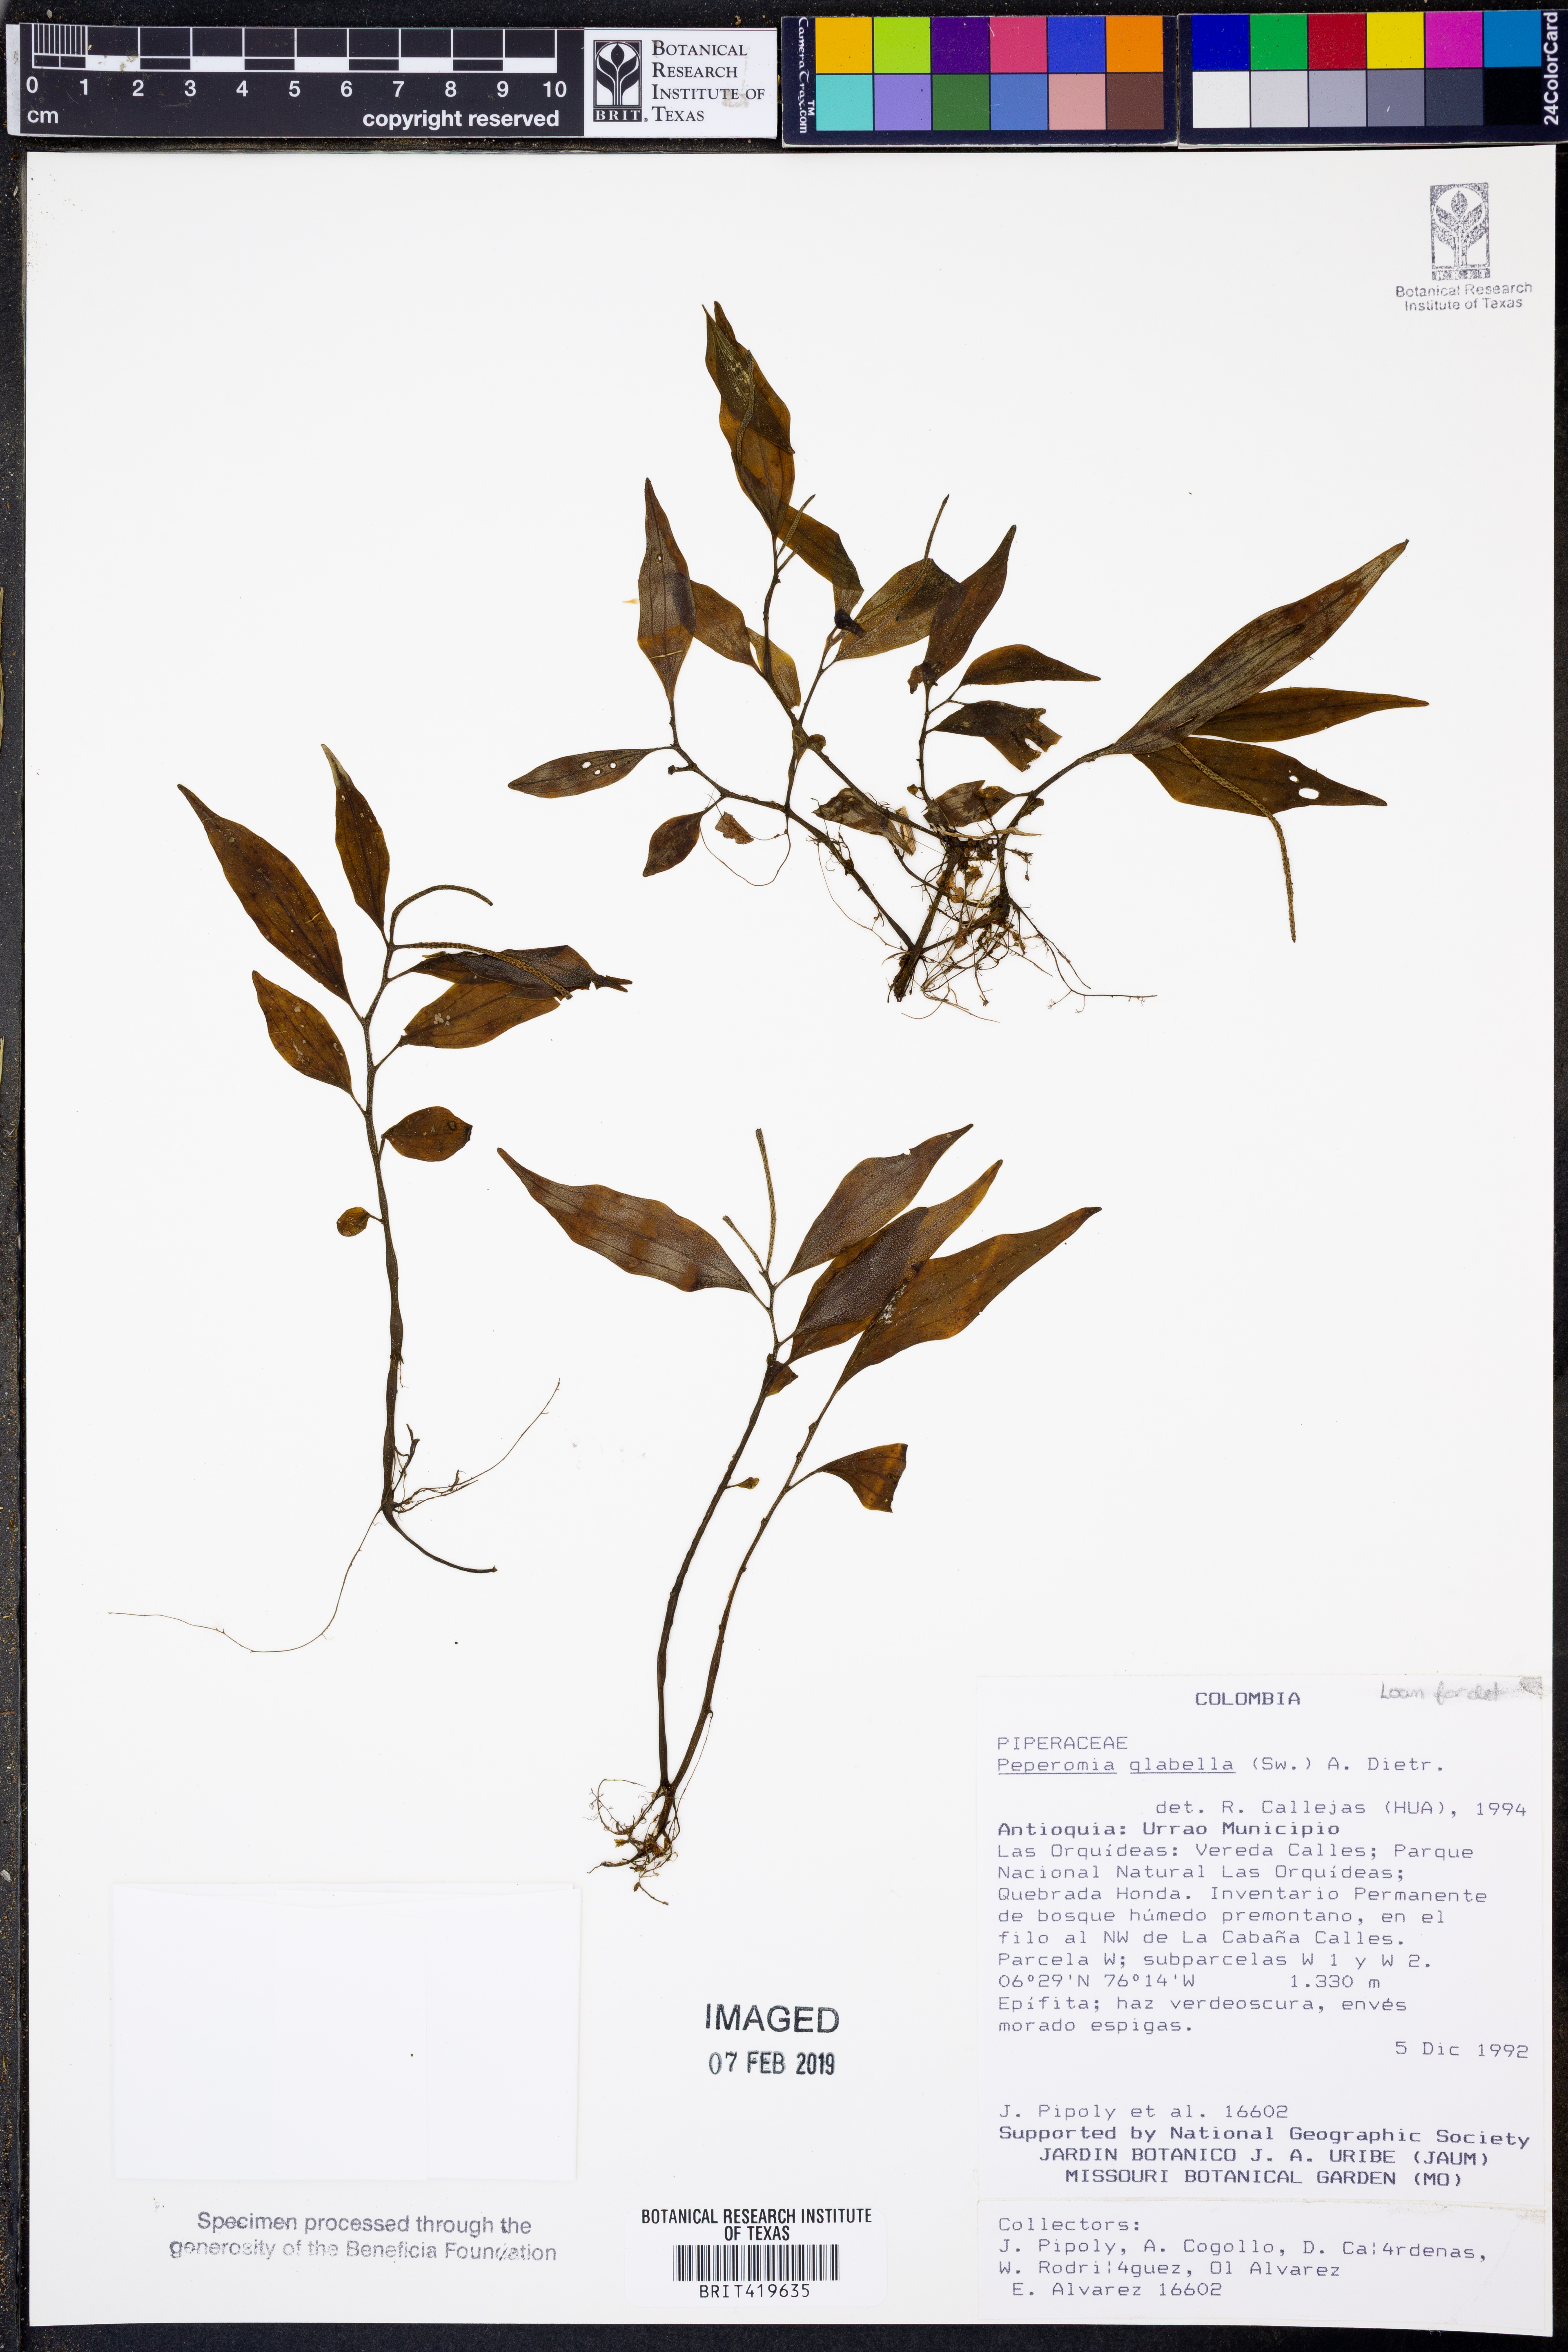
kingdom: Plantae
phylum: Tracheophyta
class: Magnoliopsida
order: Piperales
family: Piperaceae
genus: Peperomia
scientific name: Peperomia glabella
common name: Cypress peperomia
